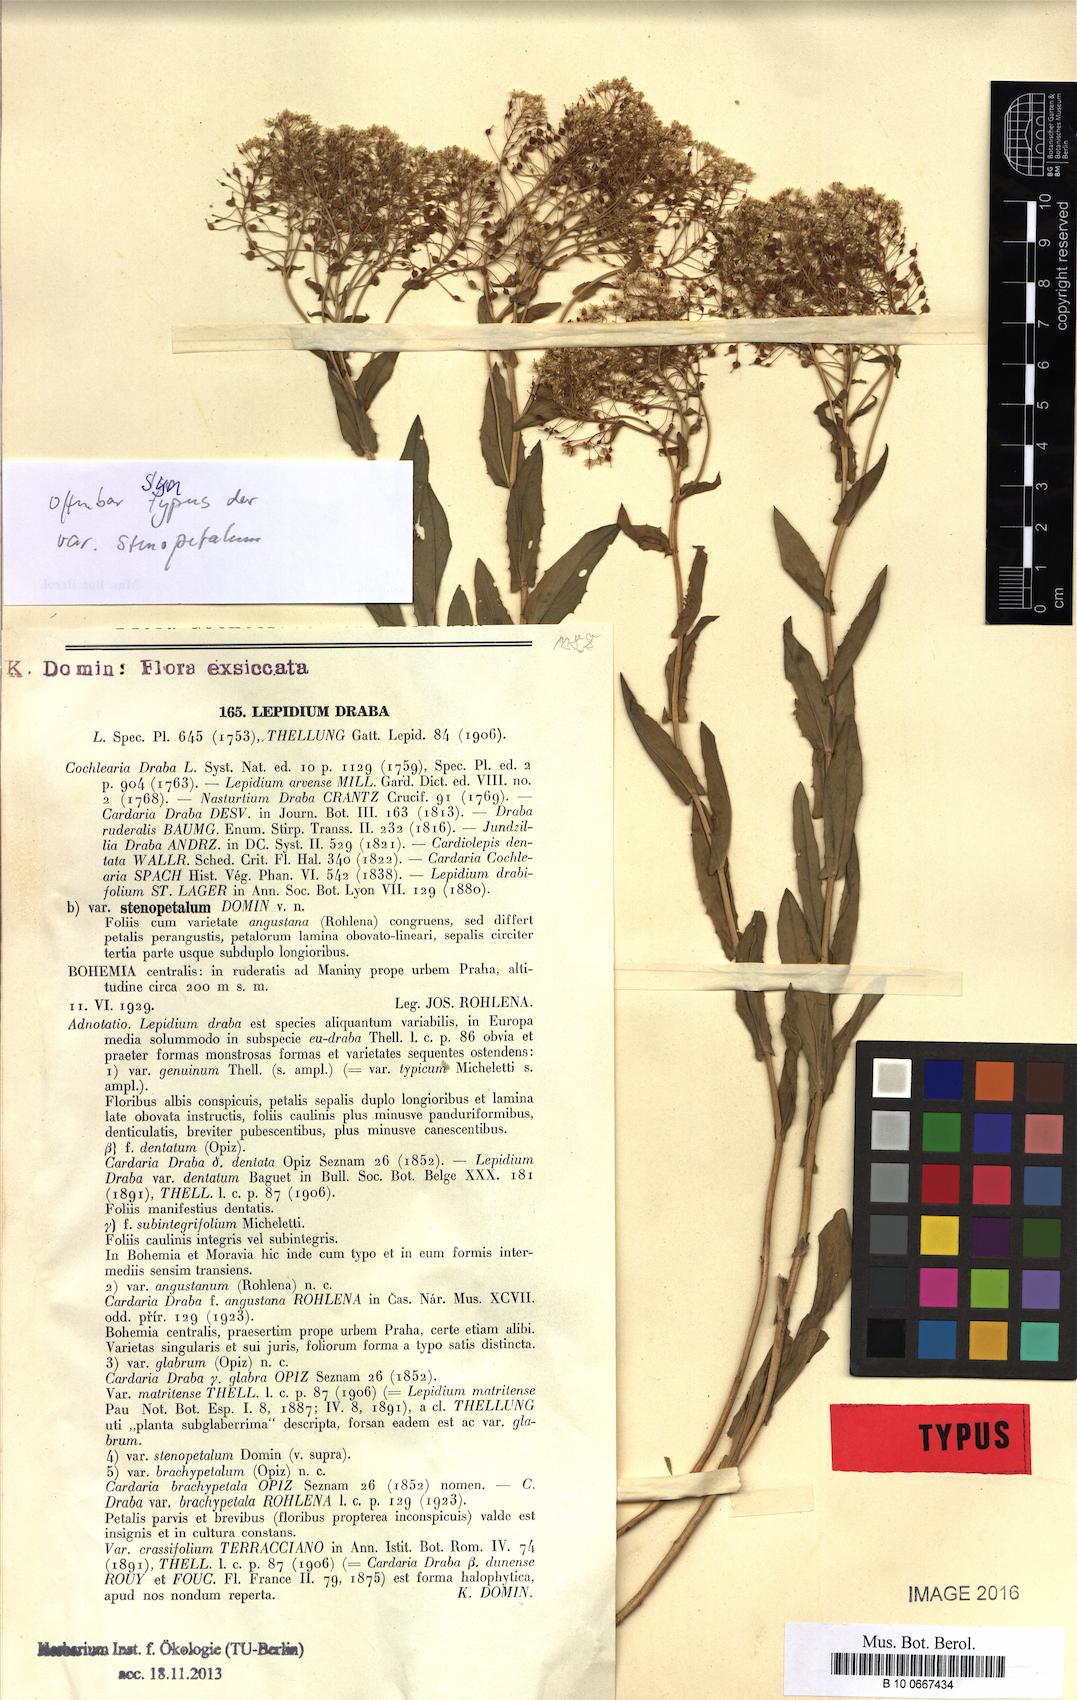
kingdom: Plantae
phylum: Tracheophyta
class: Magnoliopsida
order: Brassicales
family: Brassicaceae
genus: Lepidium
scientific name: Lepidium draba
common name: Hoary cress
